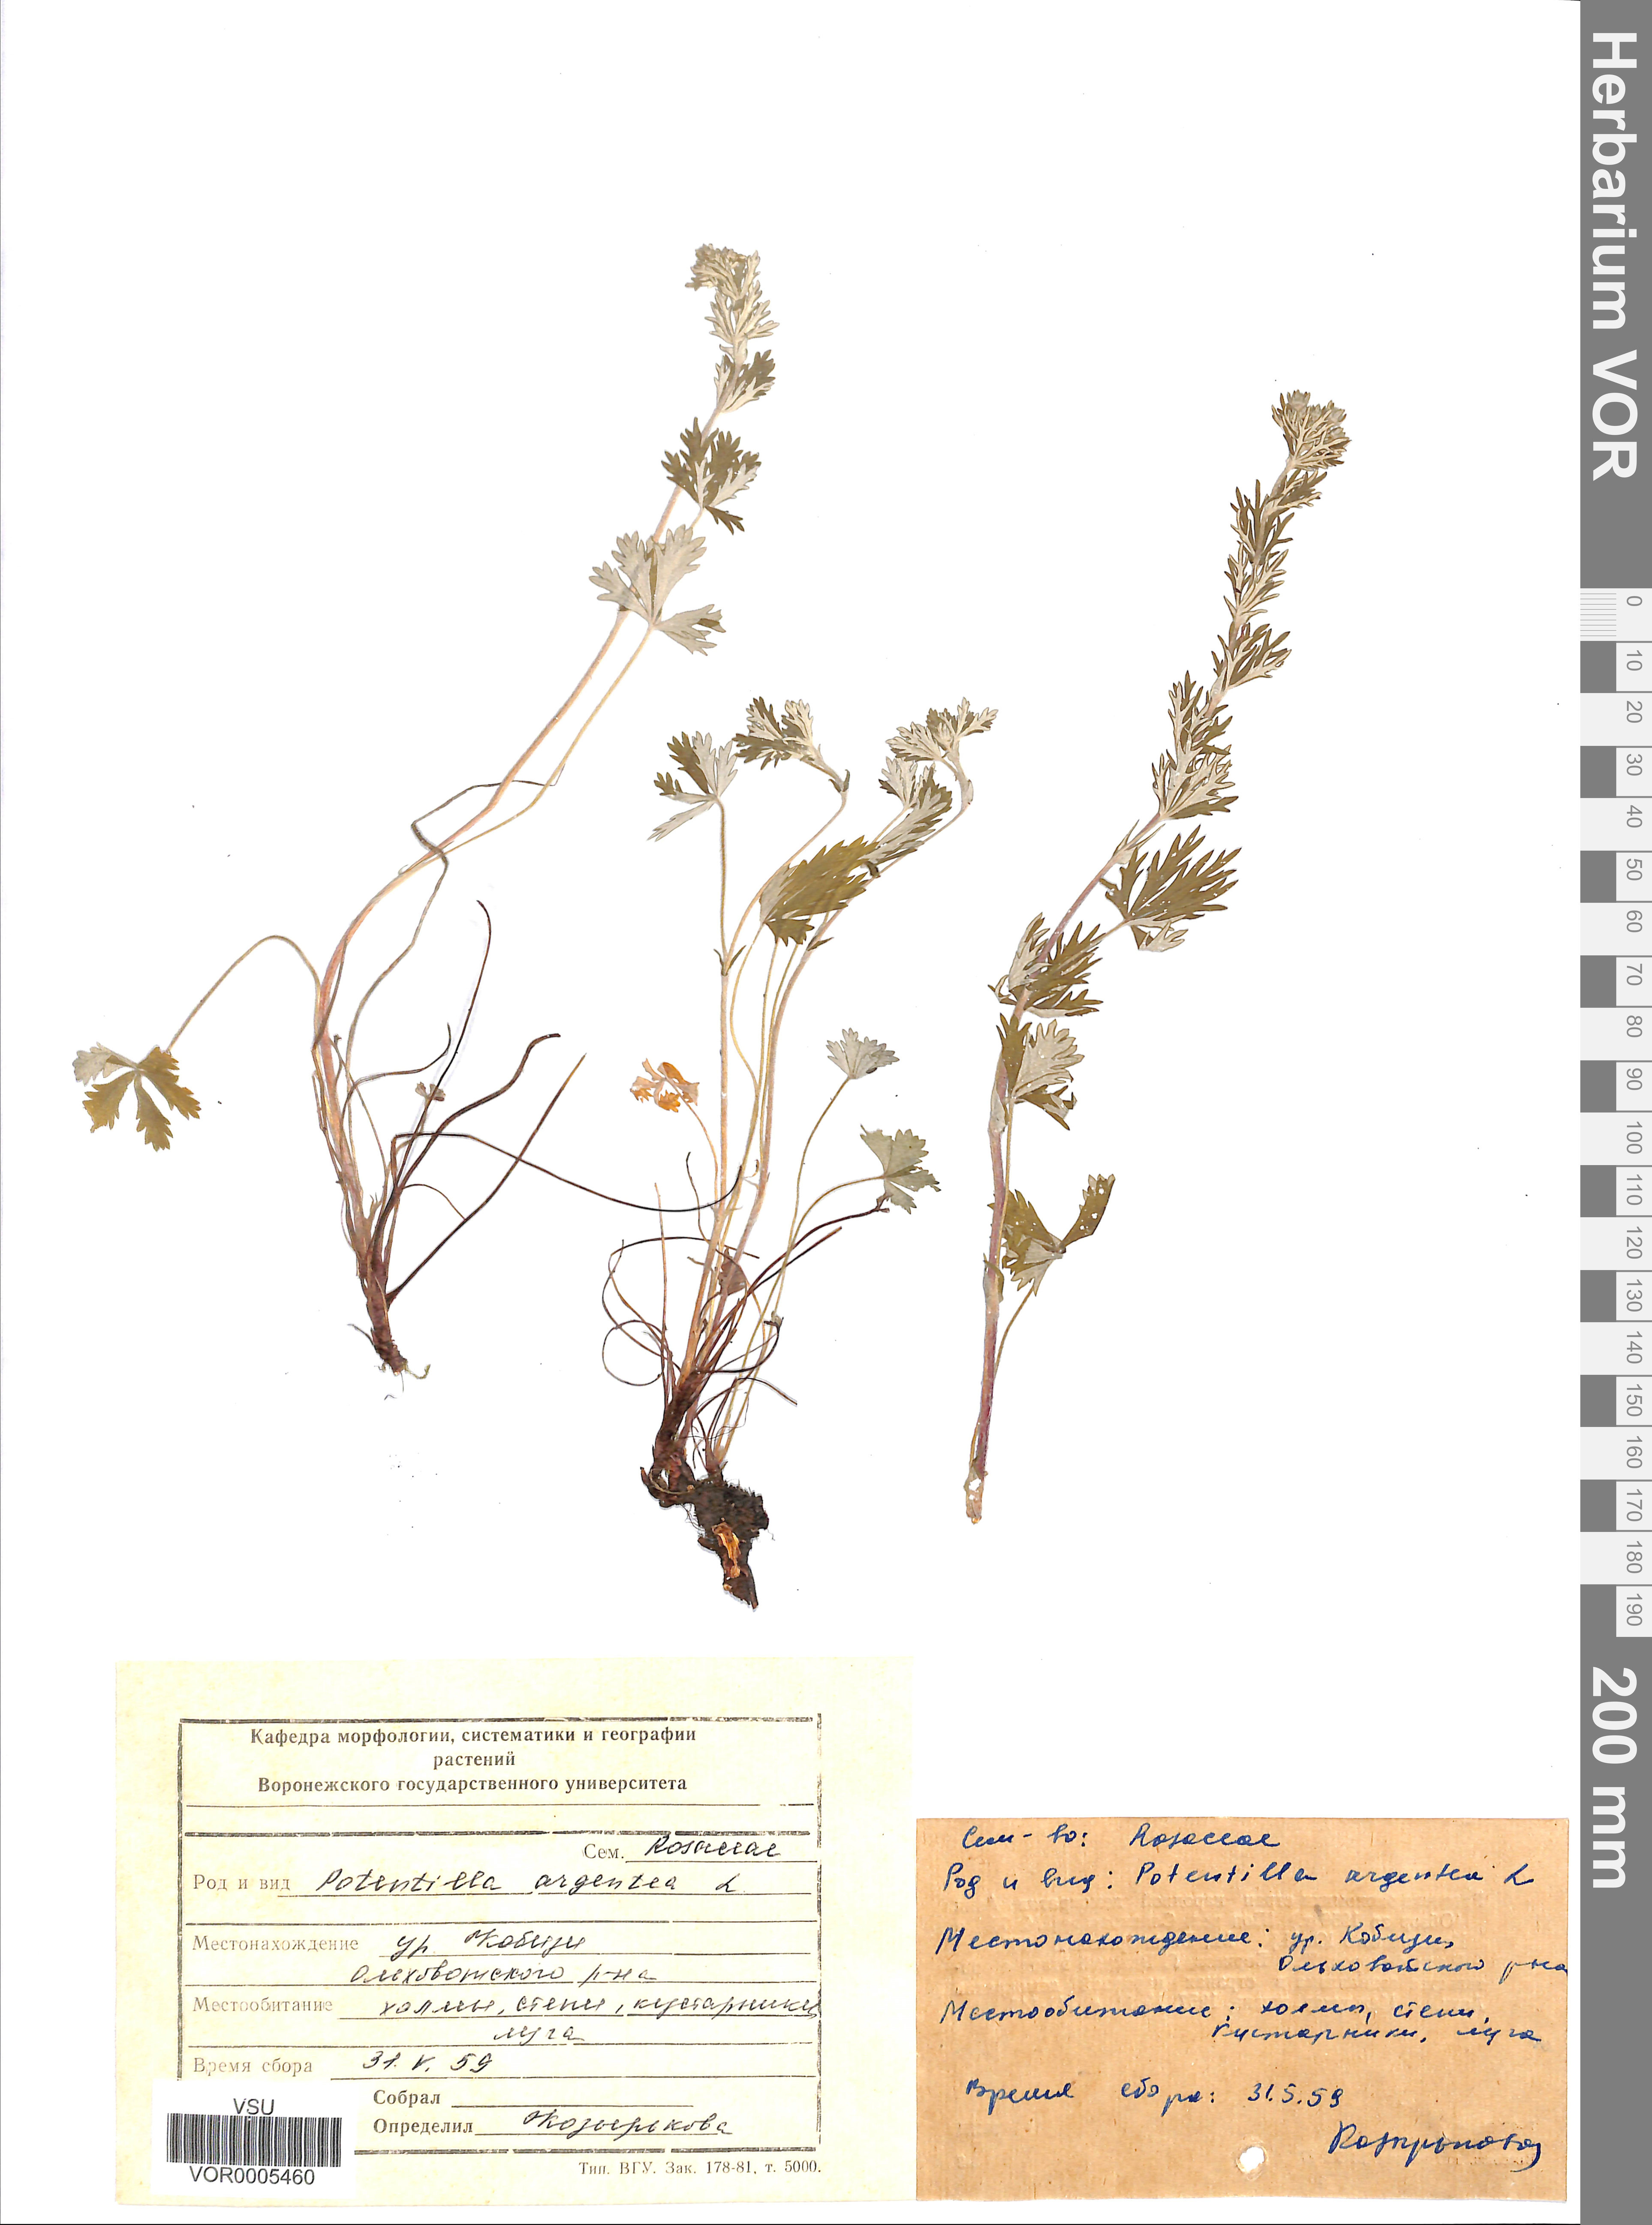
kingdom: Plantae
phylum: Tracheophyta
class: Magnoliopsida
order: Rosales
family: Rosaceae
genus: Potentilla
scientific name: Potentilla argentea
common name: Hoary cinquefoil
